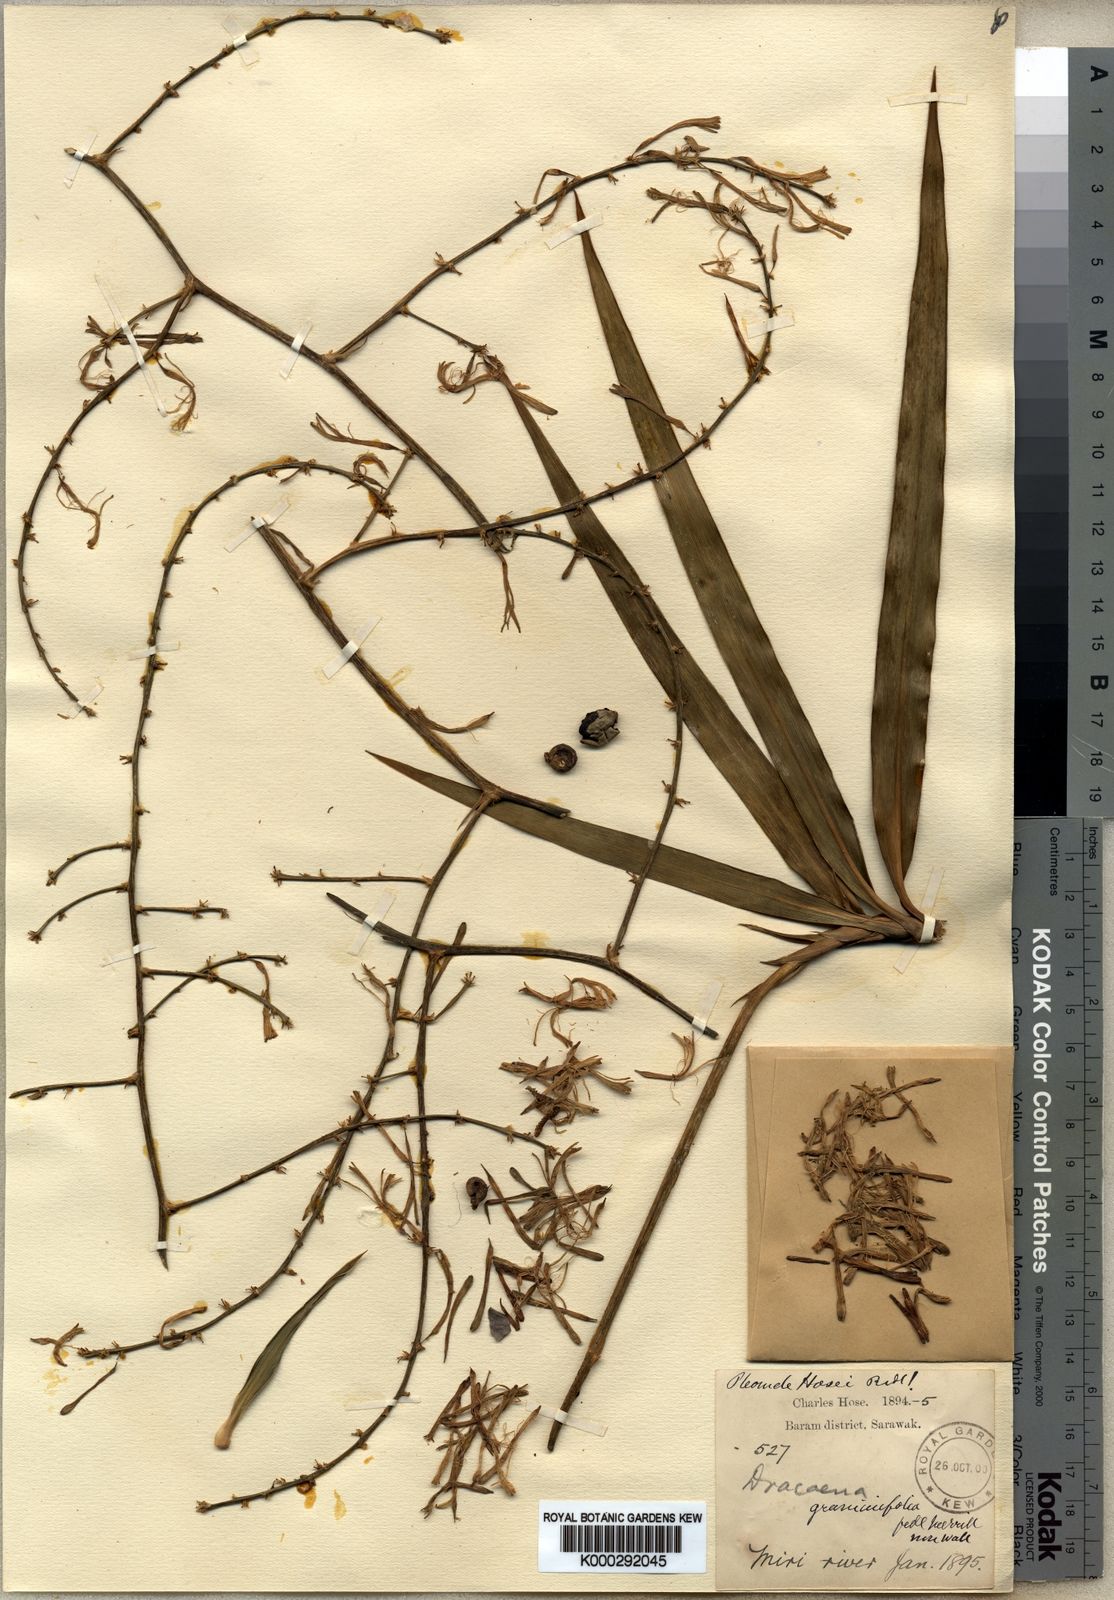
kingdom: Plantae
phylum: Tracheophyta
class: Liliopsida
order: Asparagales
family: Asparagaceae
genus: Dracaena
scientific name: Dracaena hosei
